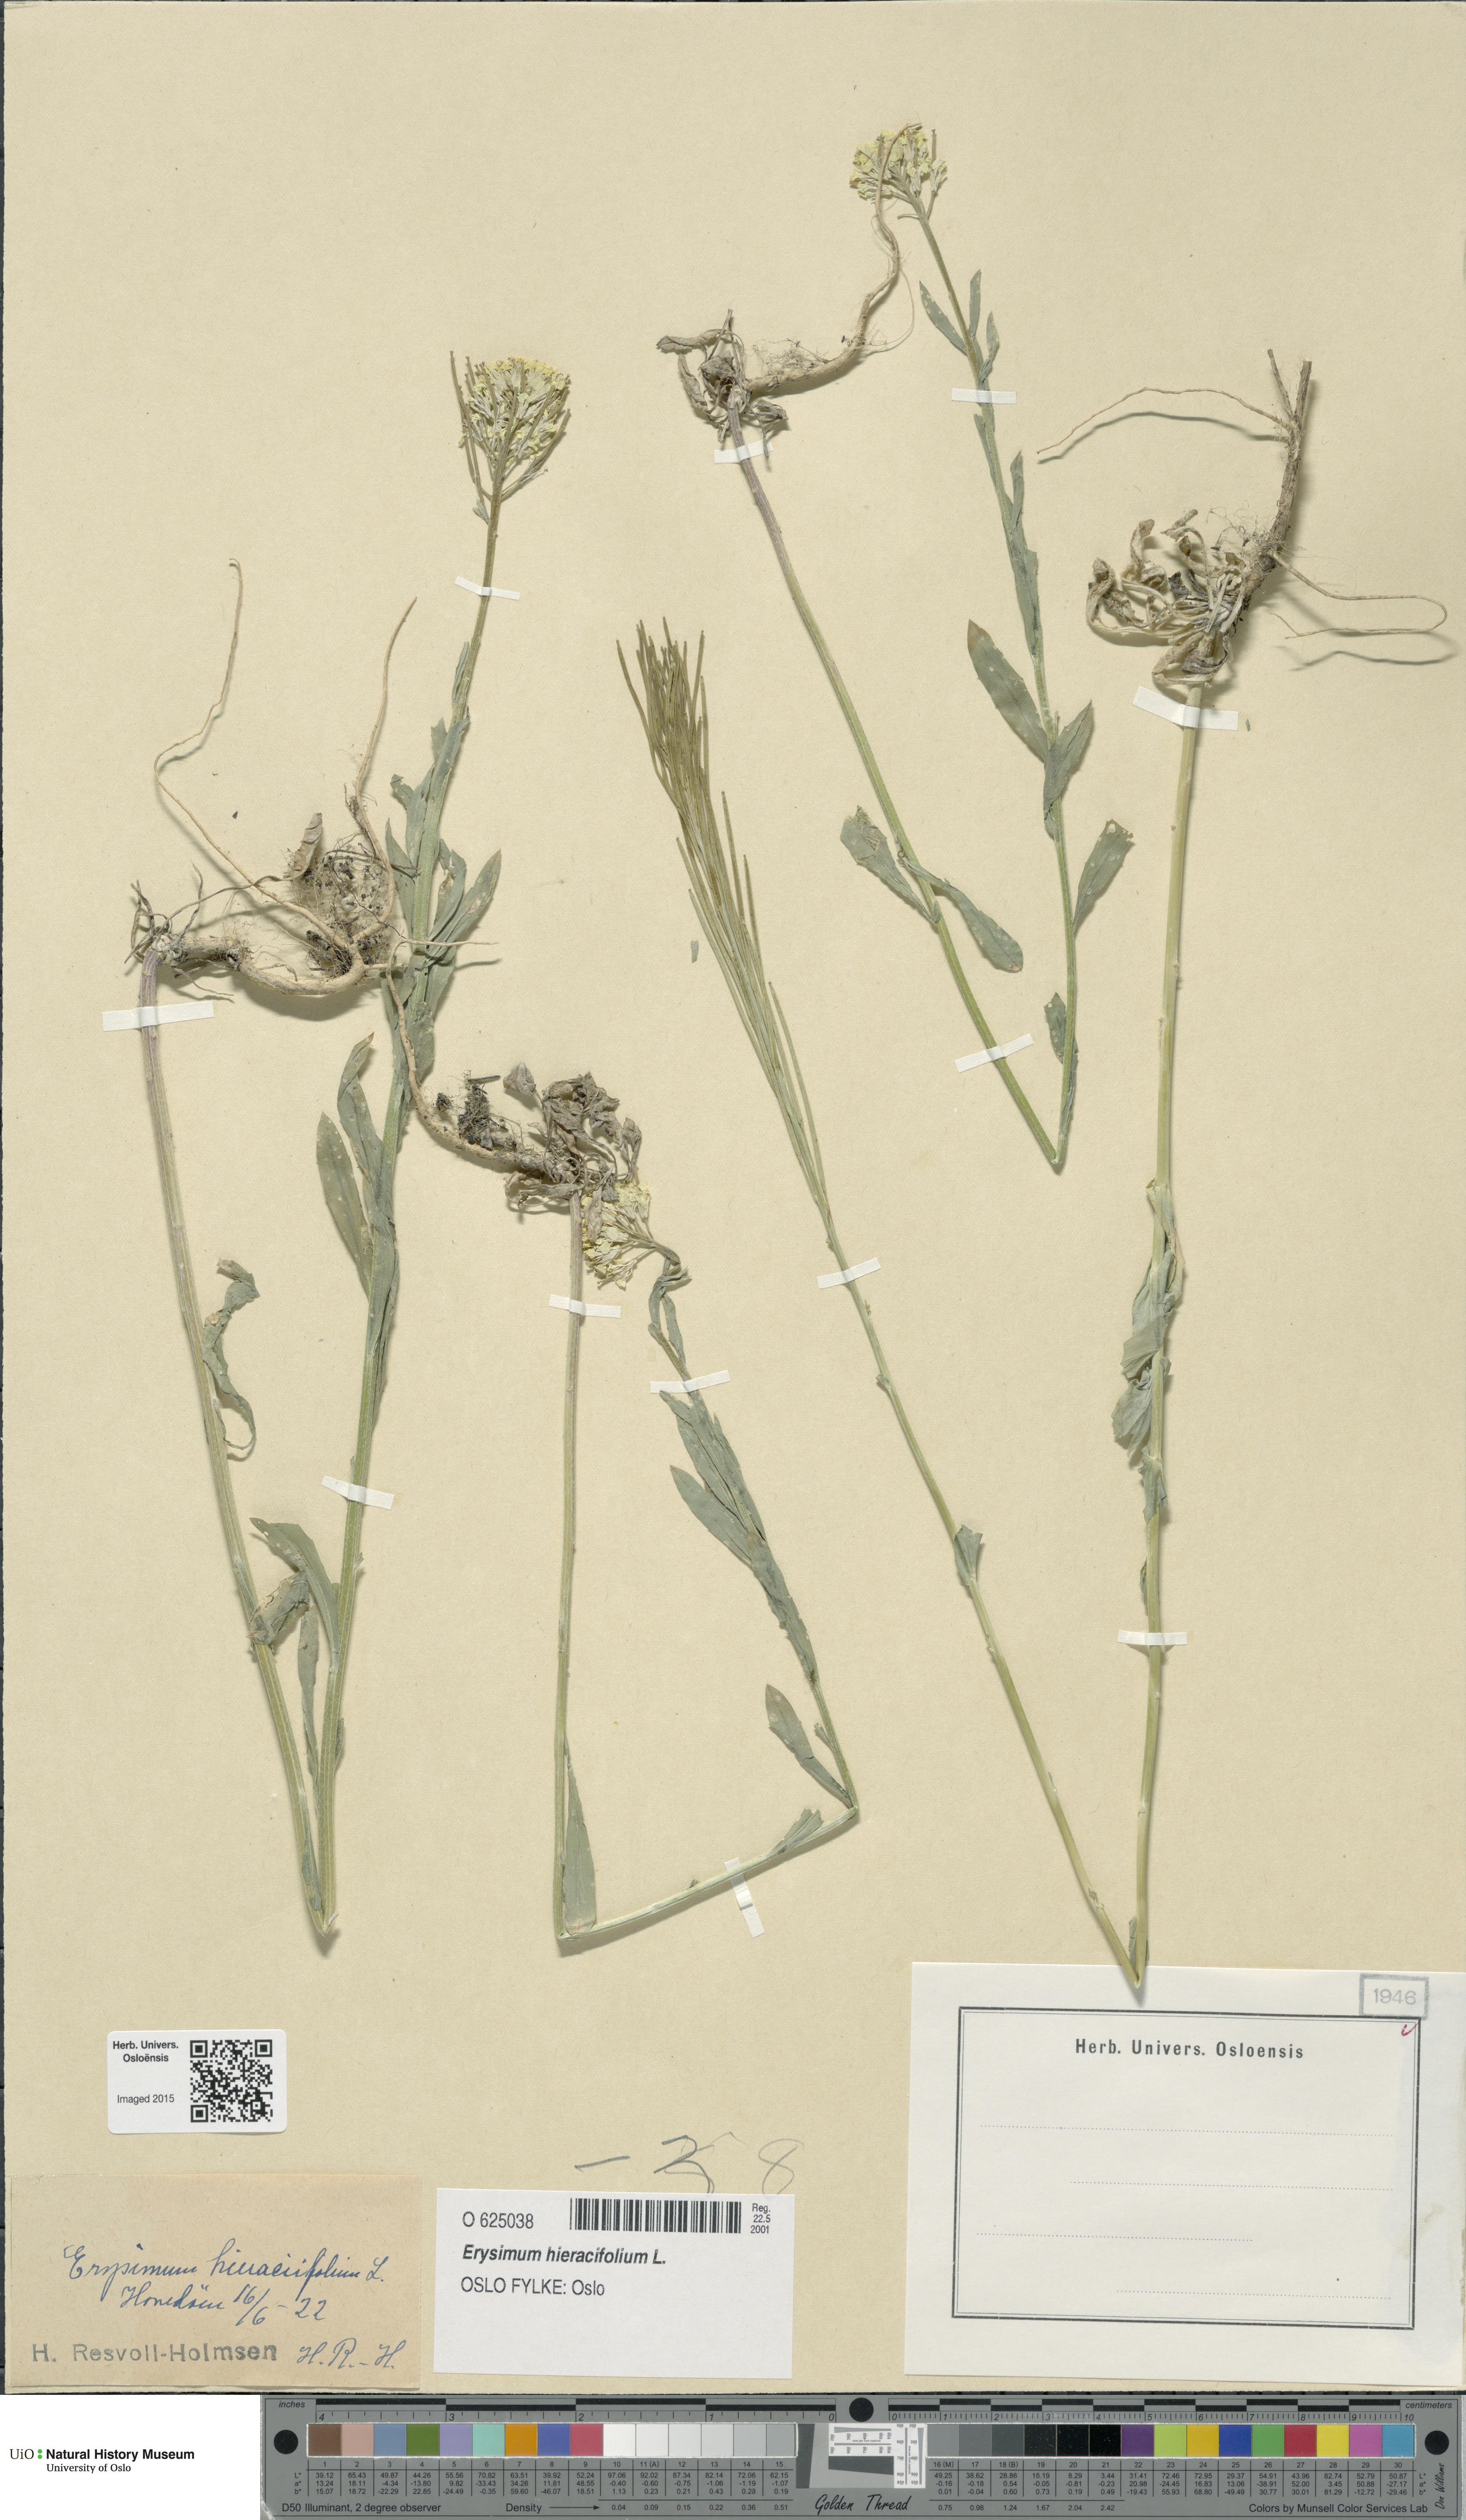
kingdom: Plantae
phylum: Tracheophyta
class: Magnoliopsida
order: Brassicales
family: Brassicaceae
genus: Erysimum
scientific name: Erysimum virgatum
